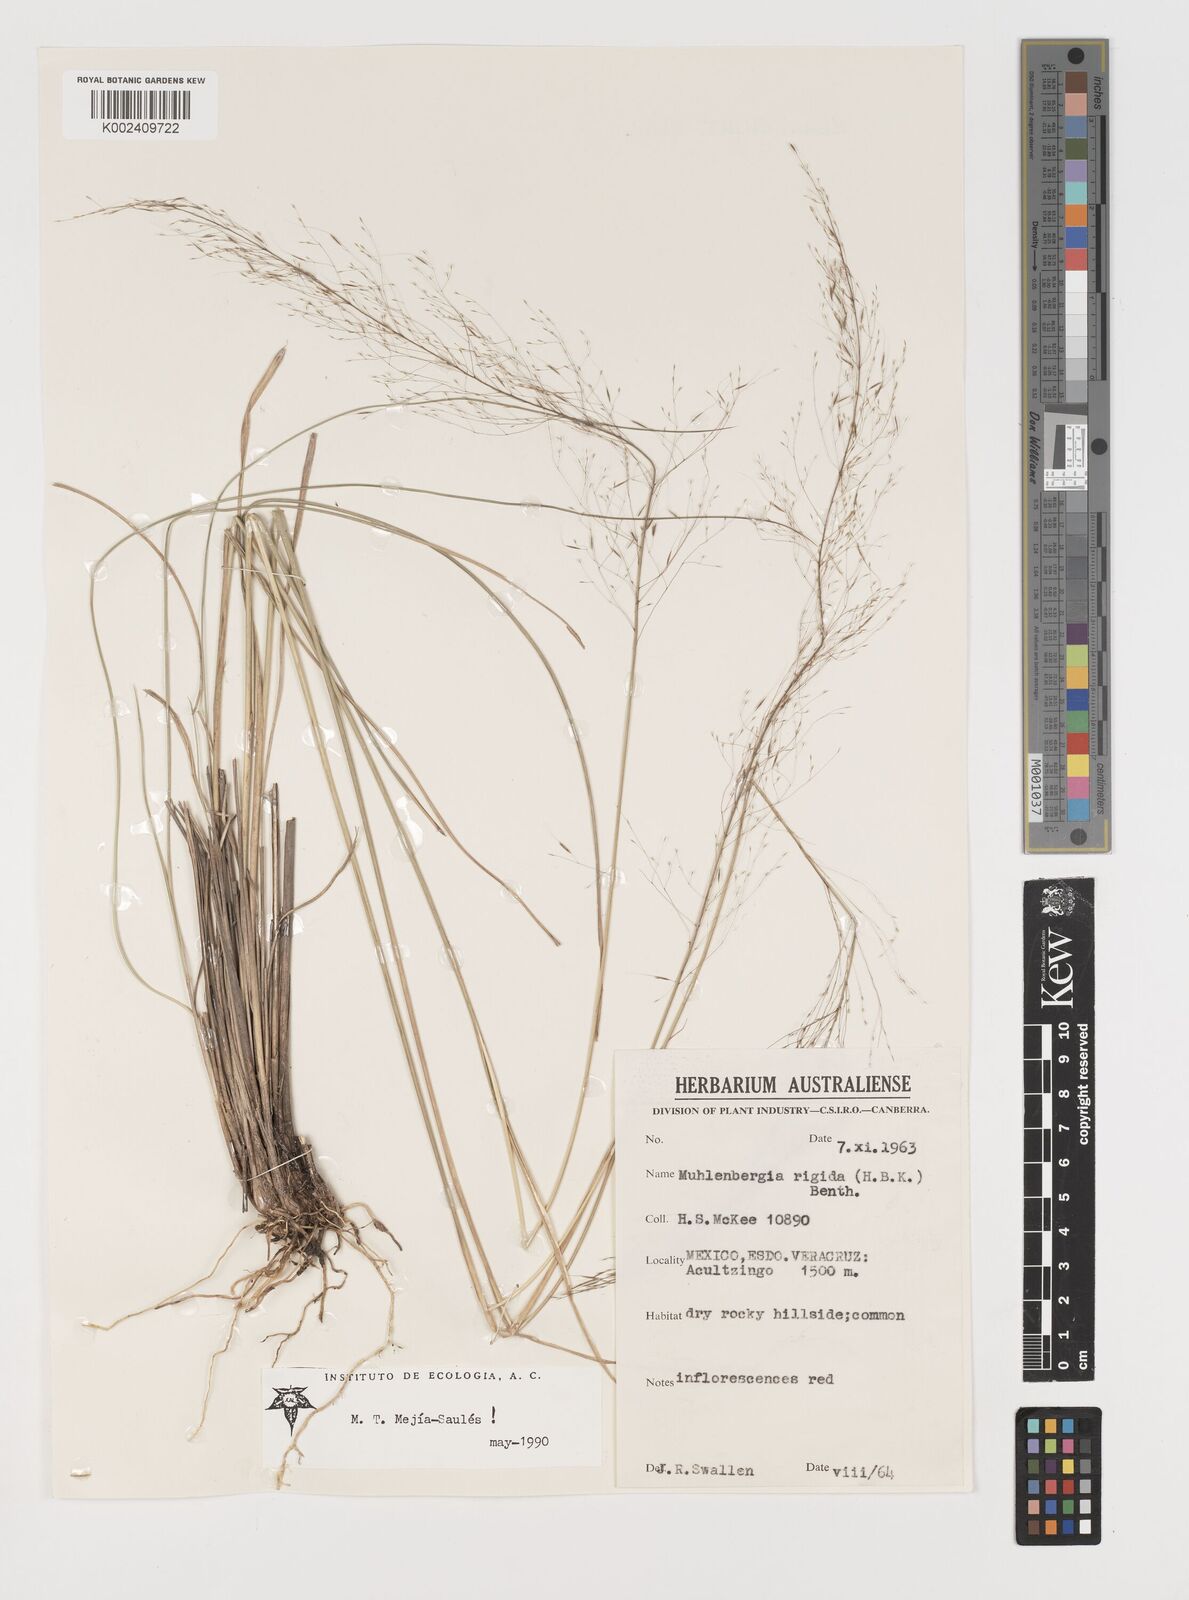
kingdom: Plantae
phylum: Tracheophyta
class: Liliopsida
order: Poales
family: Poaceae
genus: Muhlenbergia
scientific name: Muhlenbergia rigida
